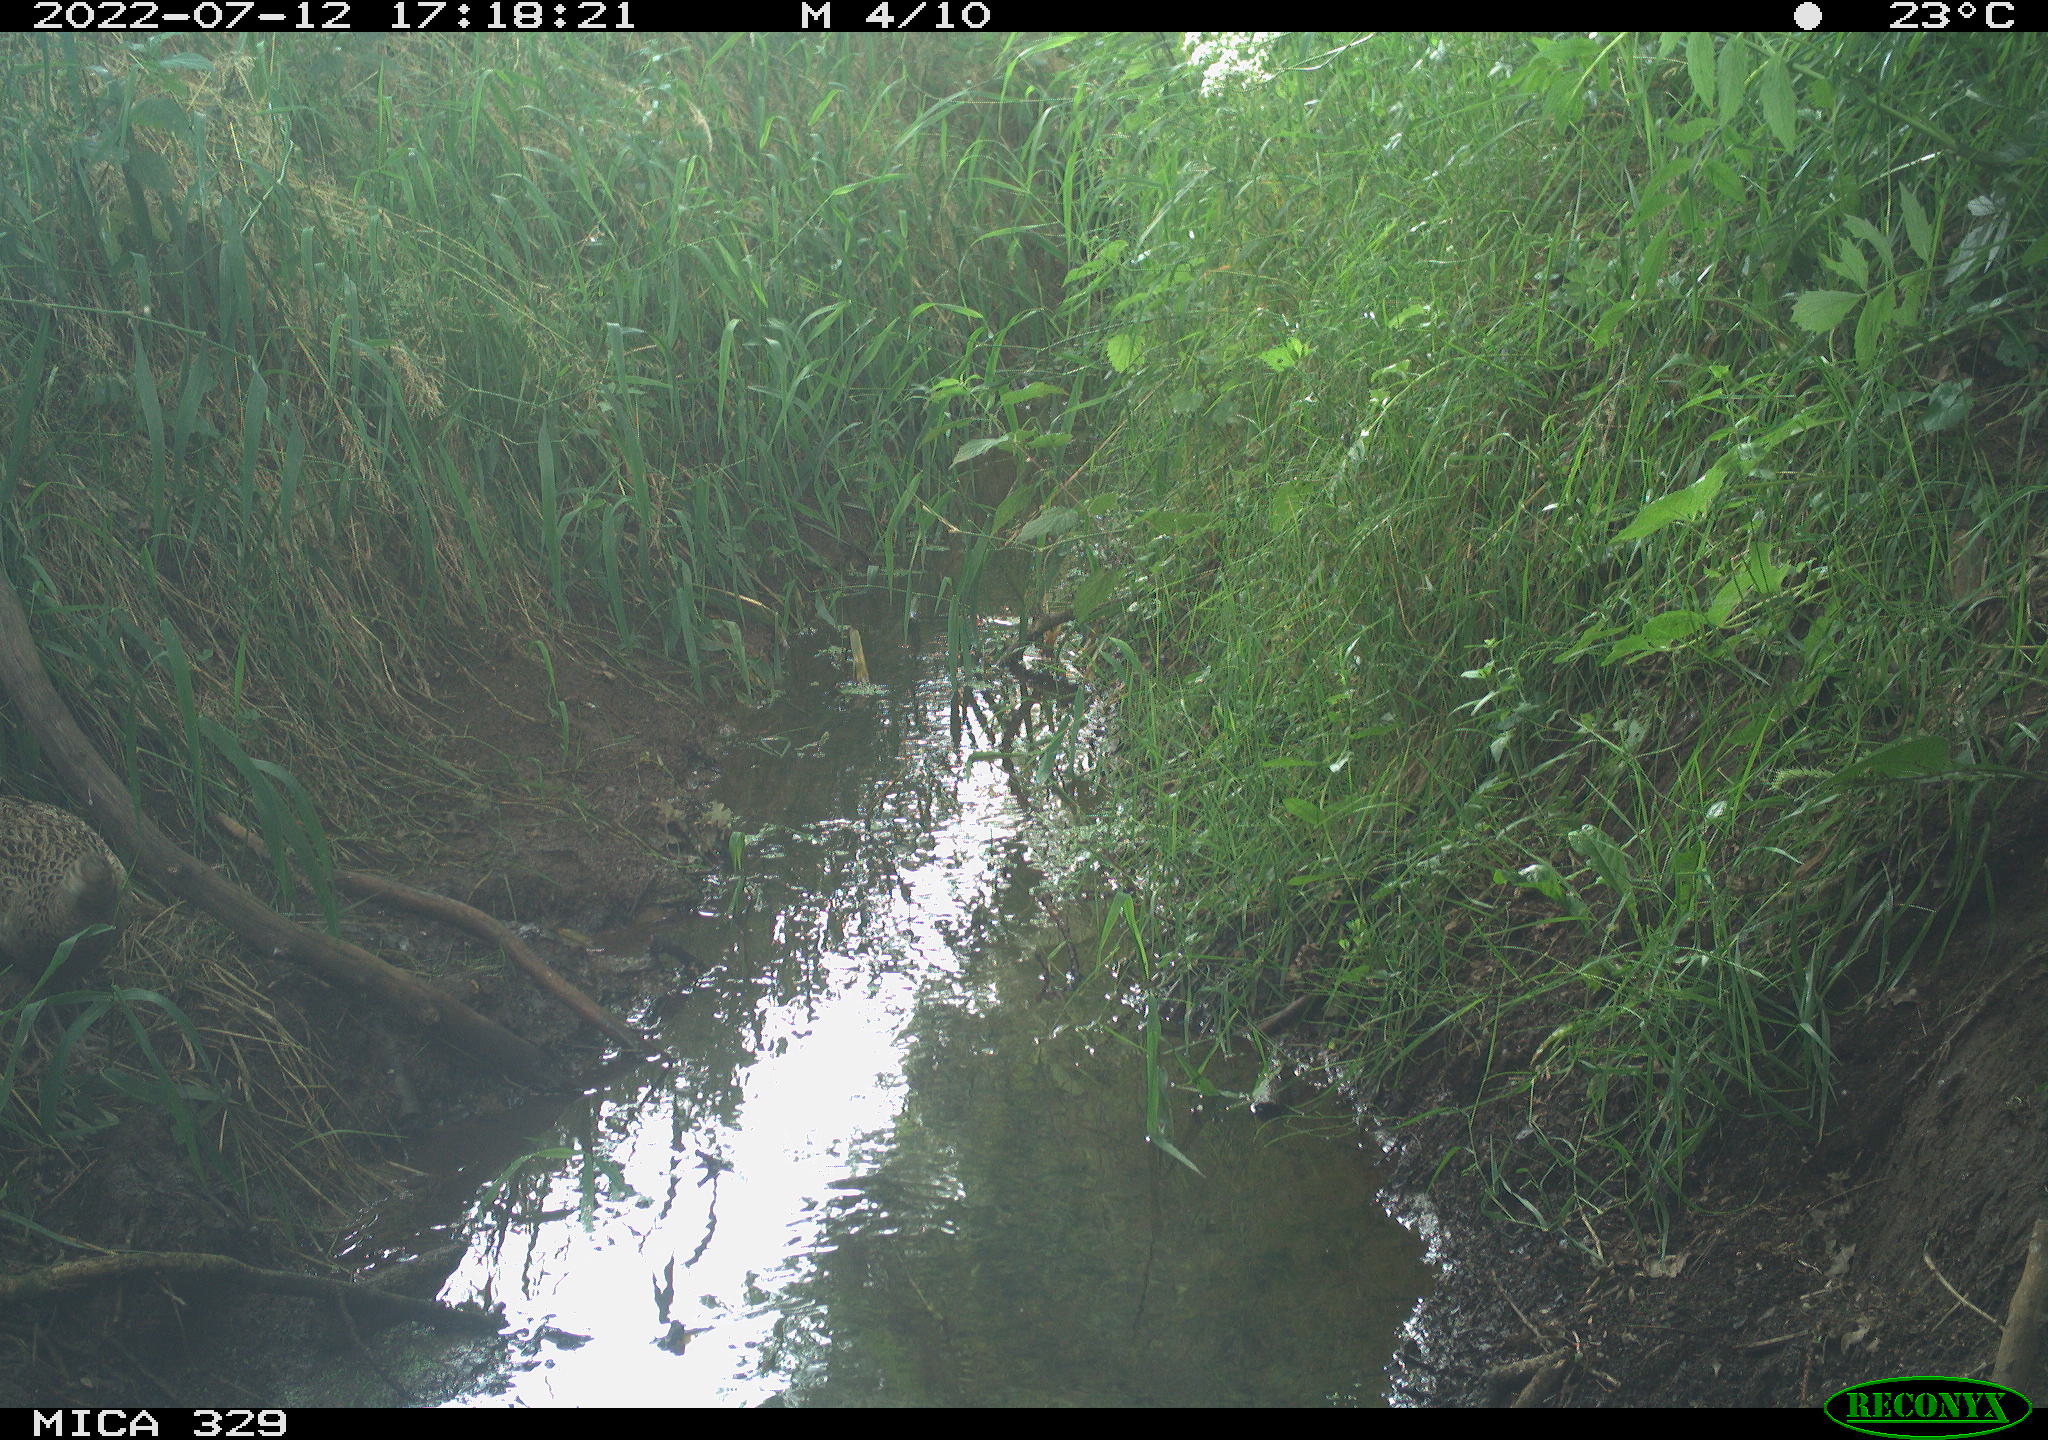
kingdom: Animalia
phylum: Chordata
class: Aves
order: Galliformes
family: Phasianidae
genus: Phasianus
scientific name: Phasianus colchicus
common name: Common pheasant
